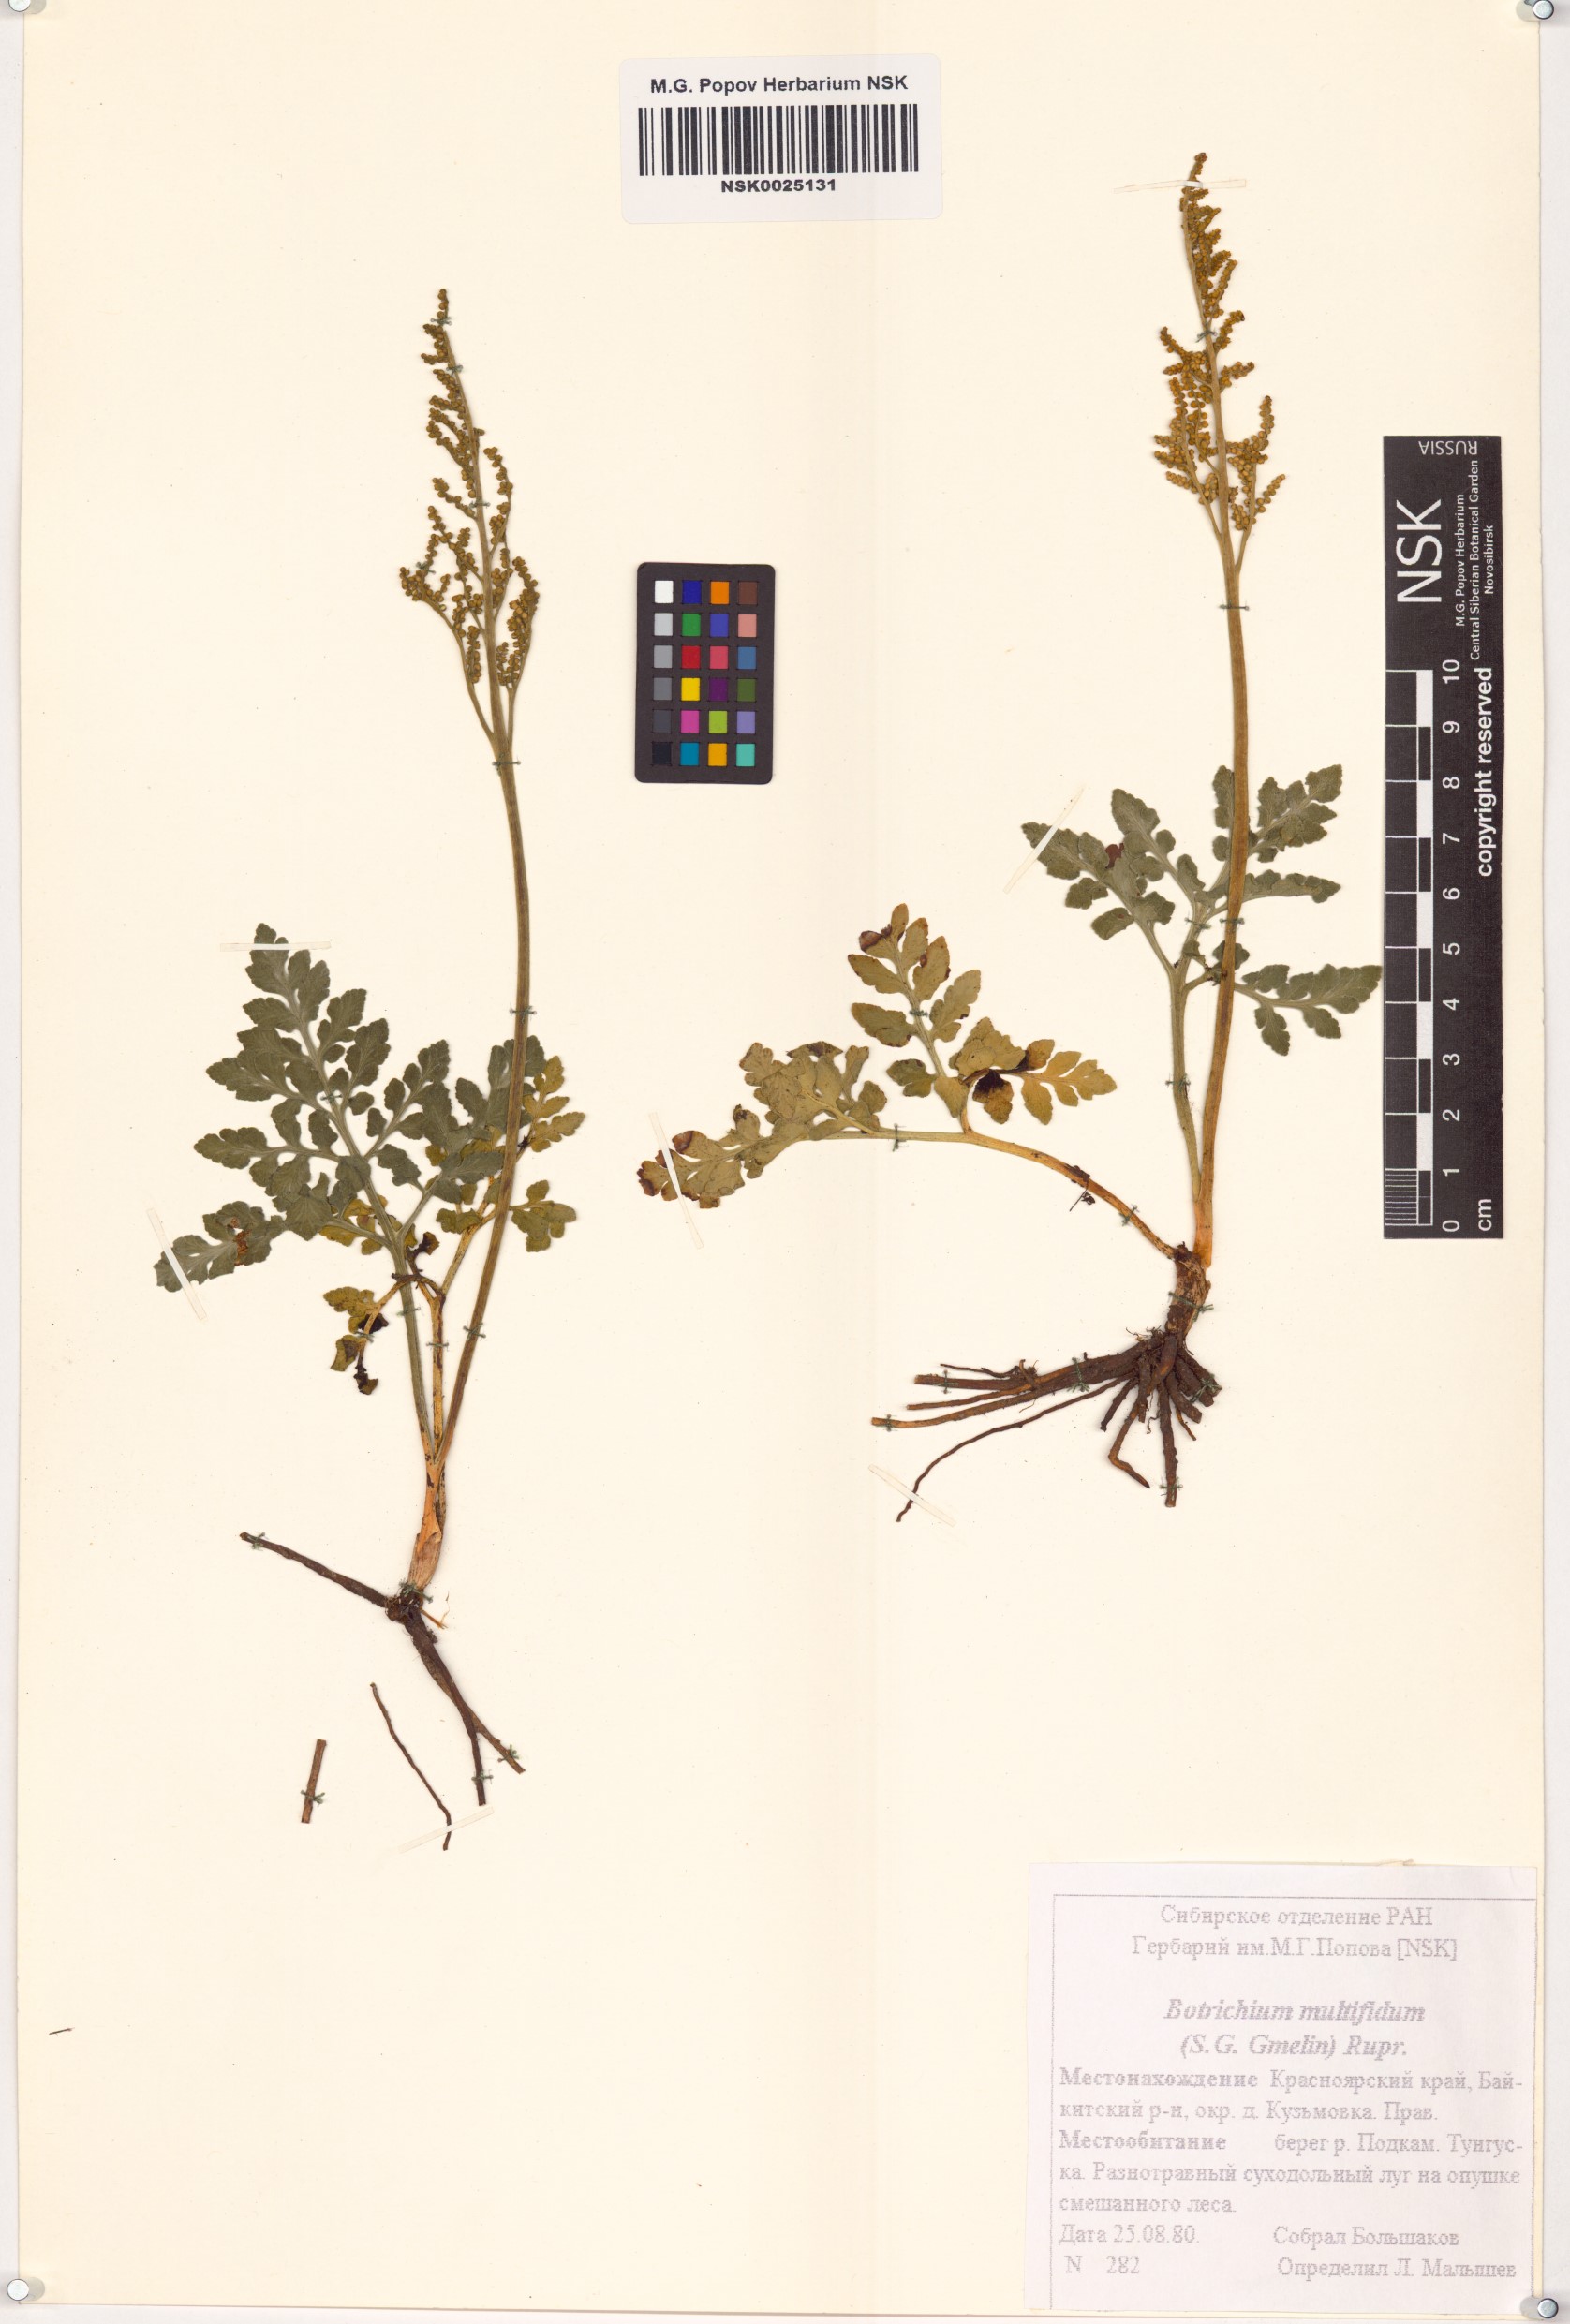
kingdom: Plantae
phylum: Tracheophyta
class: Polypodiopsida
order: Ophioglossales
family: Ophioglossaceae
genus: Sceptridium
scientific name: Sceptridium multifidum
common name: Leathery grape fern
